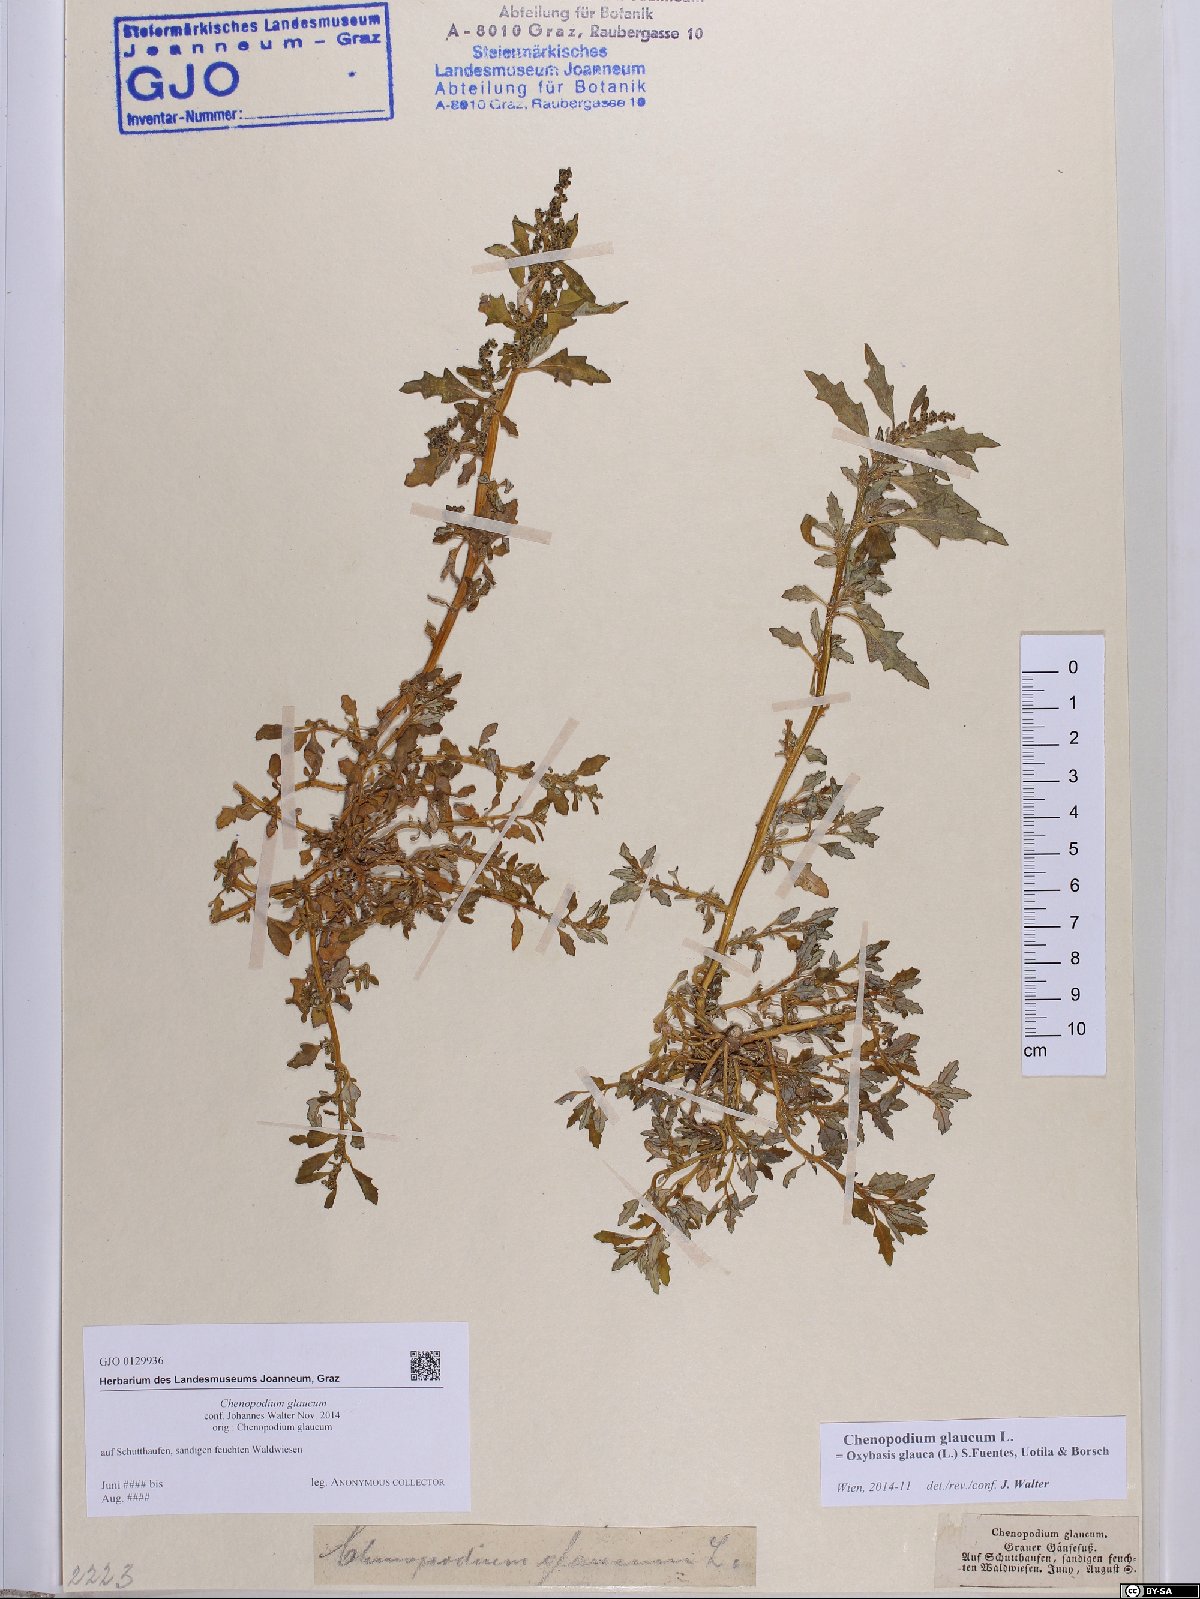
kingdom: Plantae
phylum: Tracheophyta
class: Magnoliopsida
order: Caryophyllales
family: Amaranthaceae
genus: Oxybasis
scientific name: Oxybasis glauca
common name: Glaucous goosefoot
